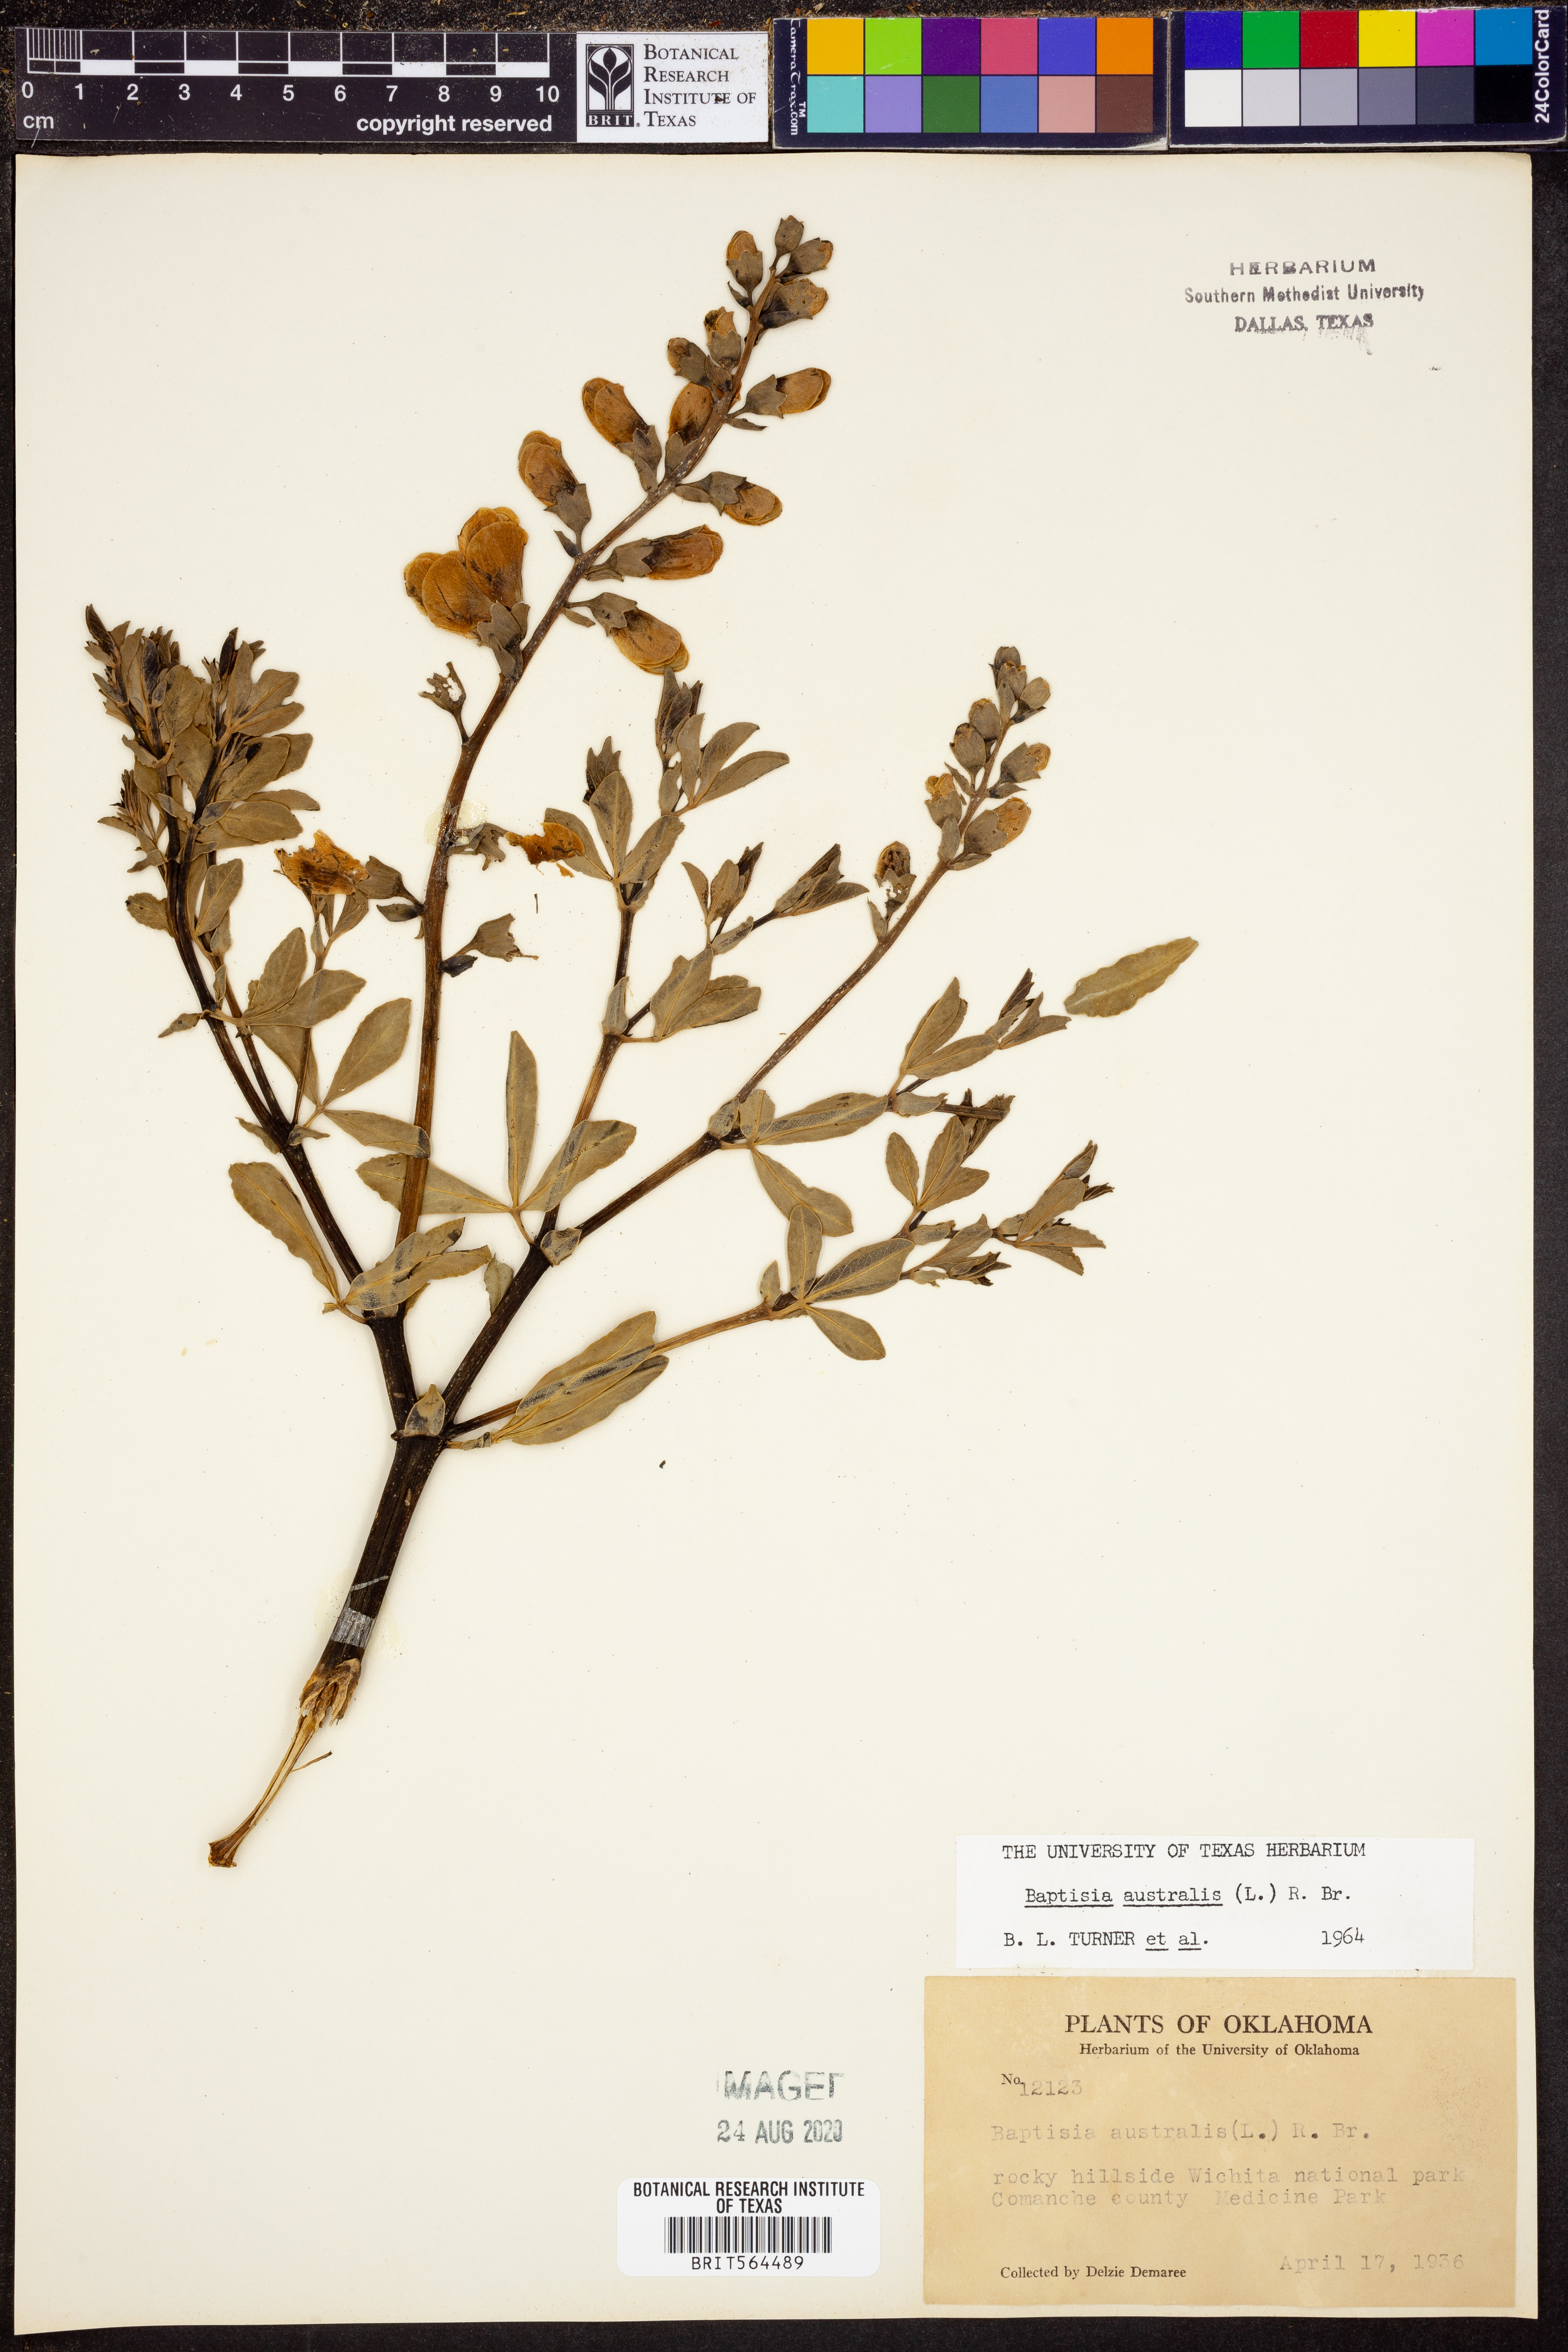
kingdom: Plantae
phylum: Tracheophyta
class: Magnoliopsida
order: Fabales
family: Fabaceae
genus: Baptisia
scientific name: Baptisia australis
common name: Blue false indigo
